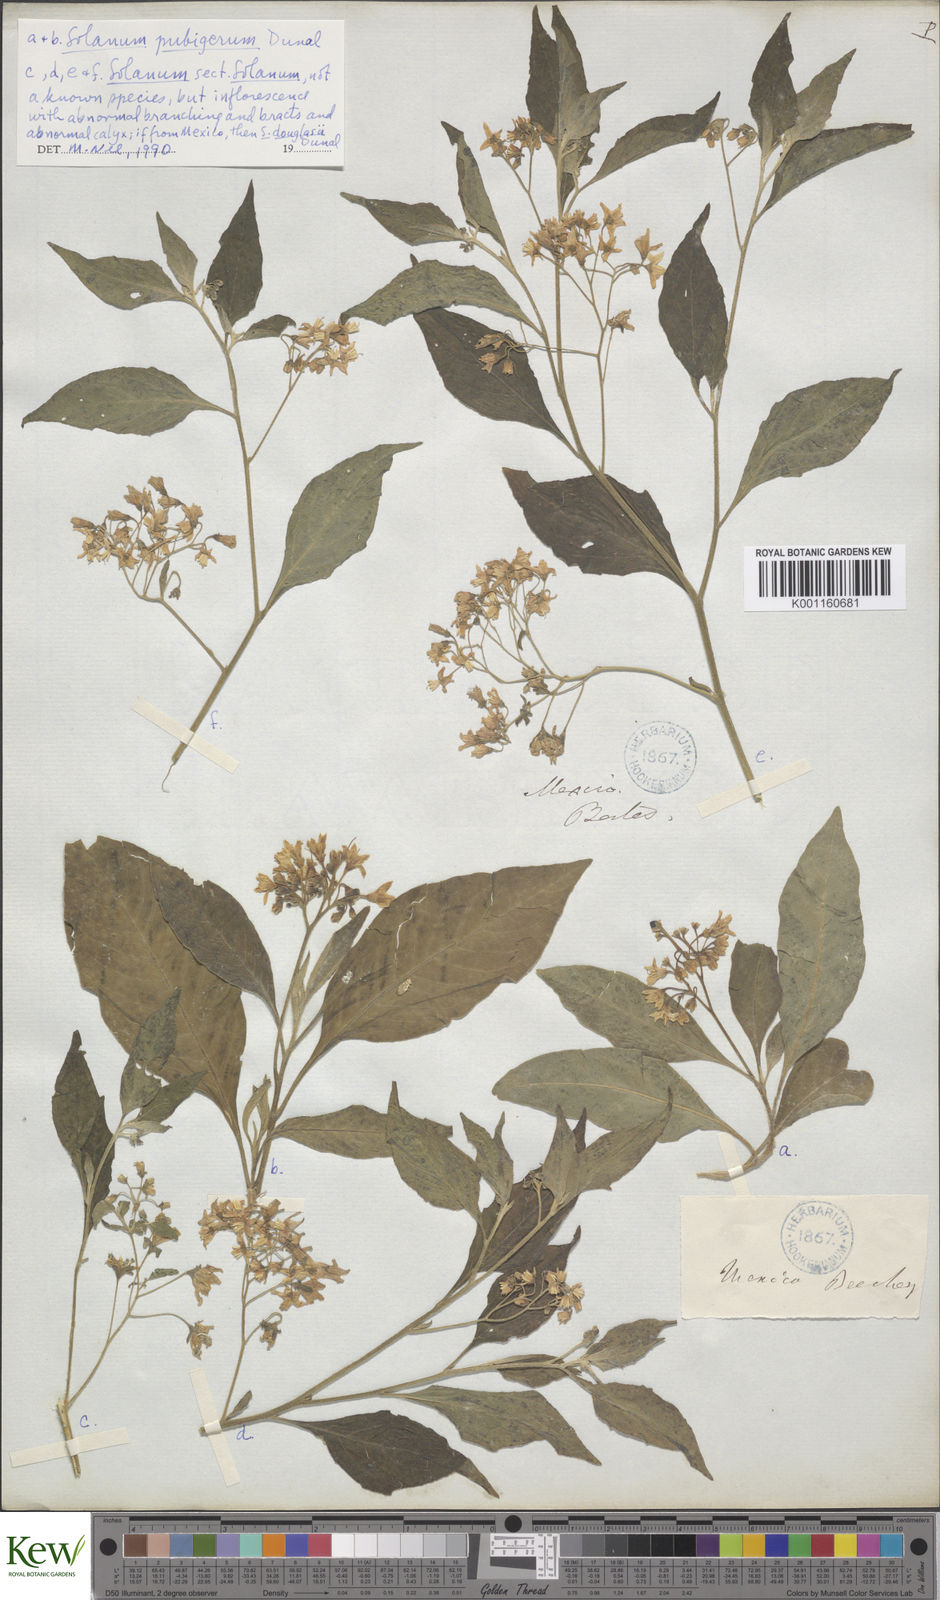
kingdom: Plantae
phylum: Tracheophyta
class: Magnoliopsida
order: Solanales
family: Solanaceae
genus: Solanum
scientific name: Solanum pubigerum
